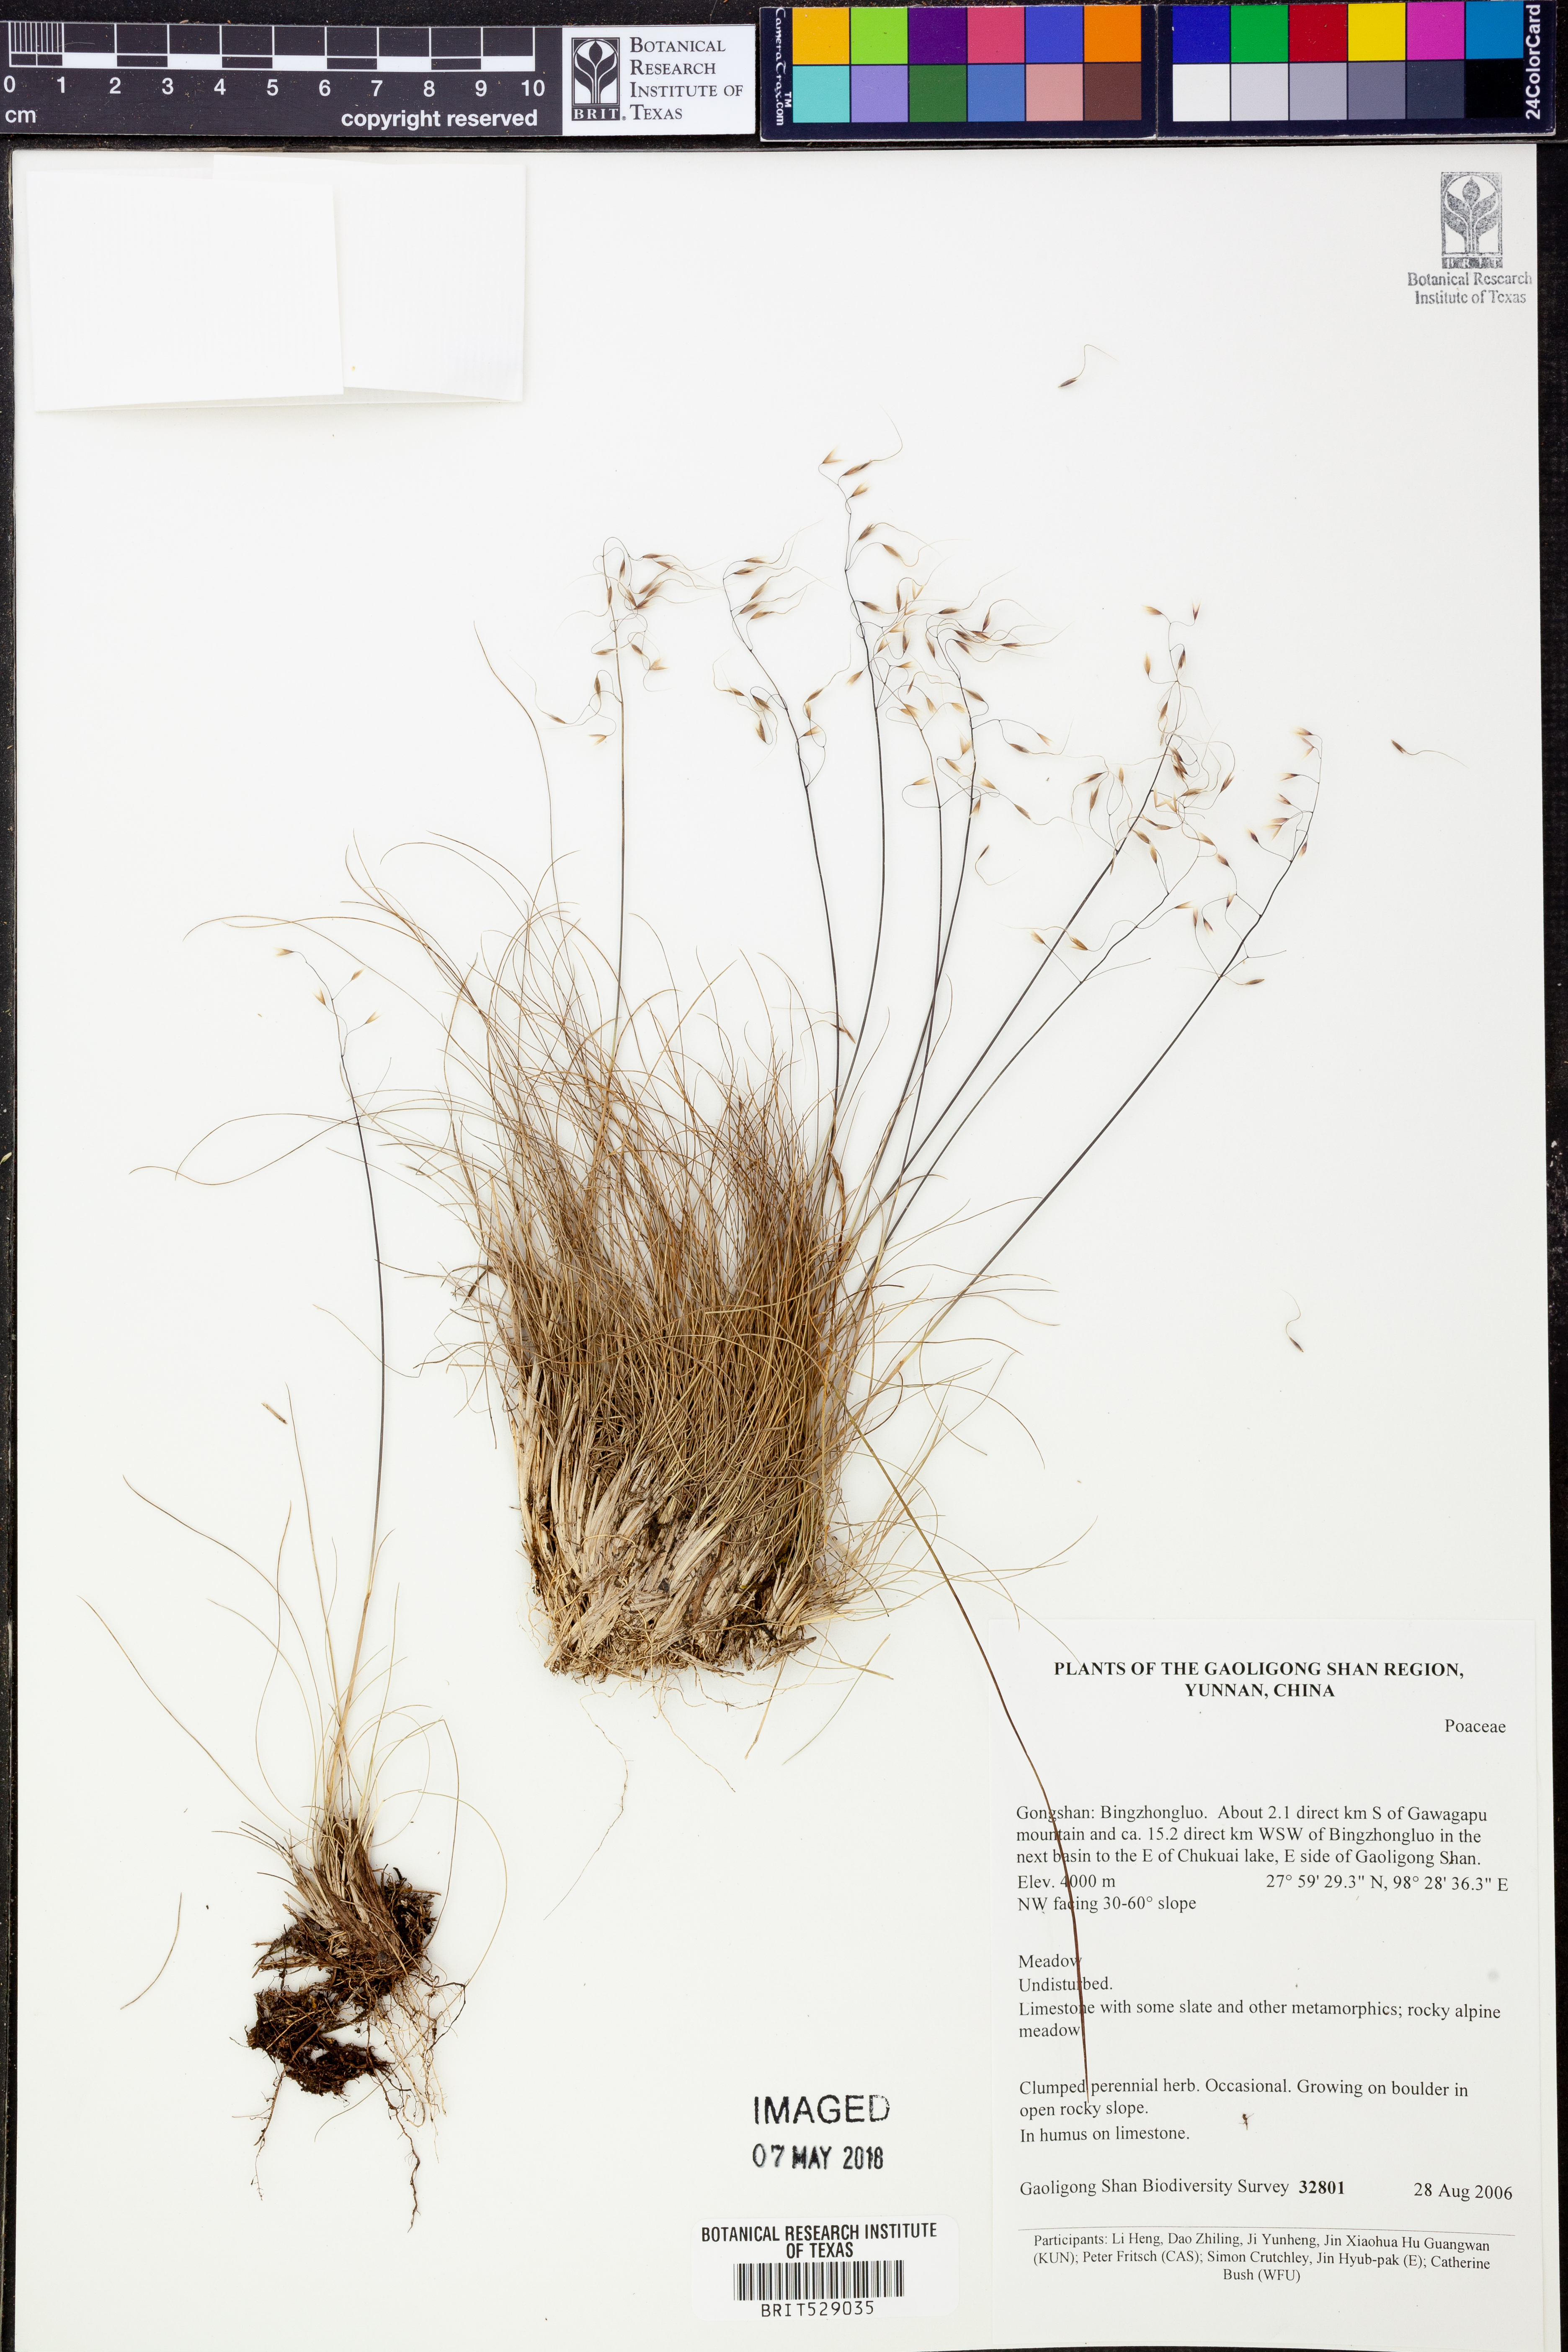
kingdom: Plantae
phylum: Tracheophyta
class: Liliopsida
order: Poales
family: Poaceae
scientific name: Poaceae
